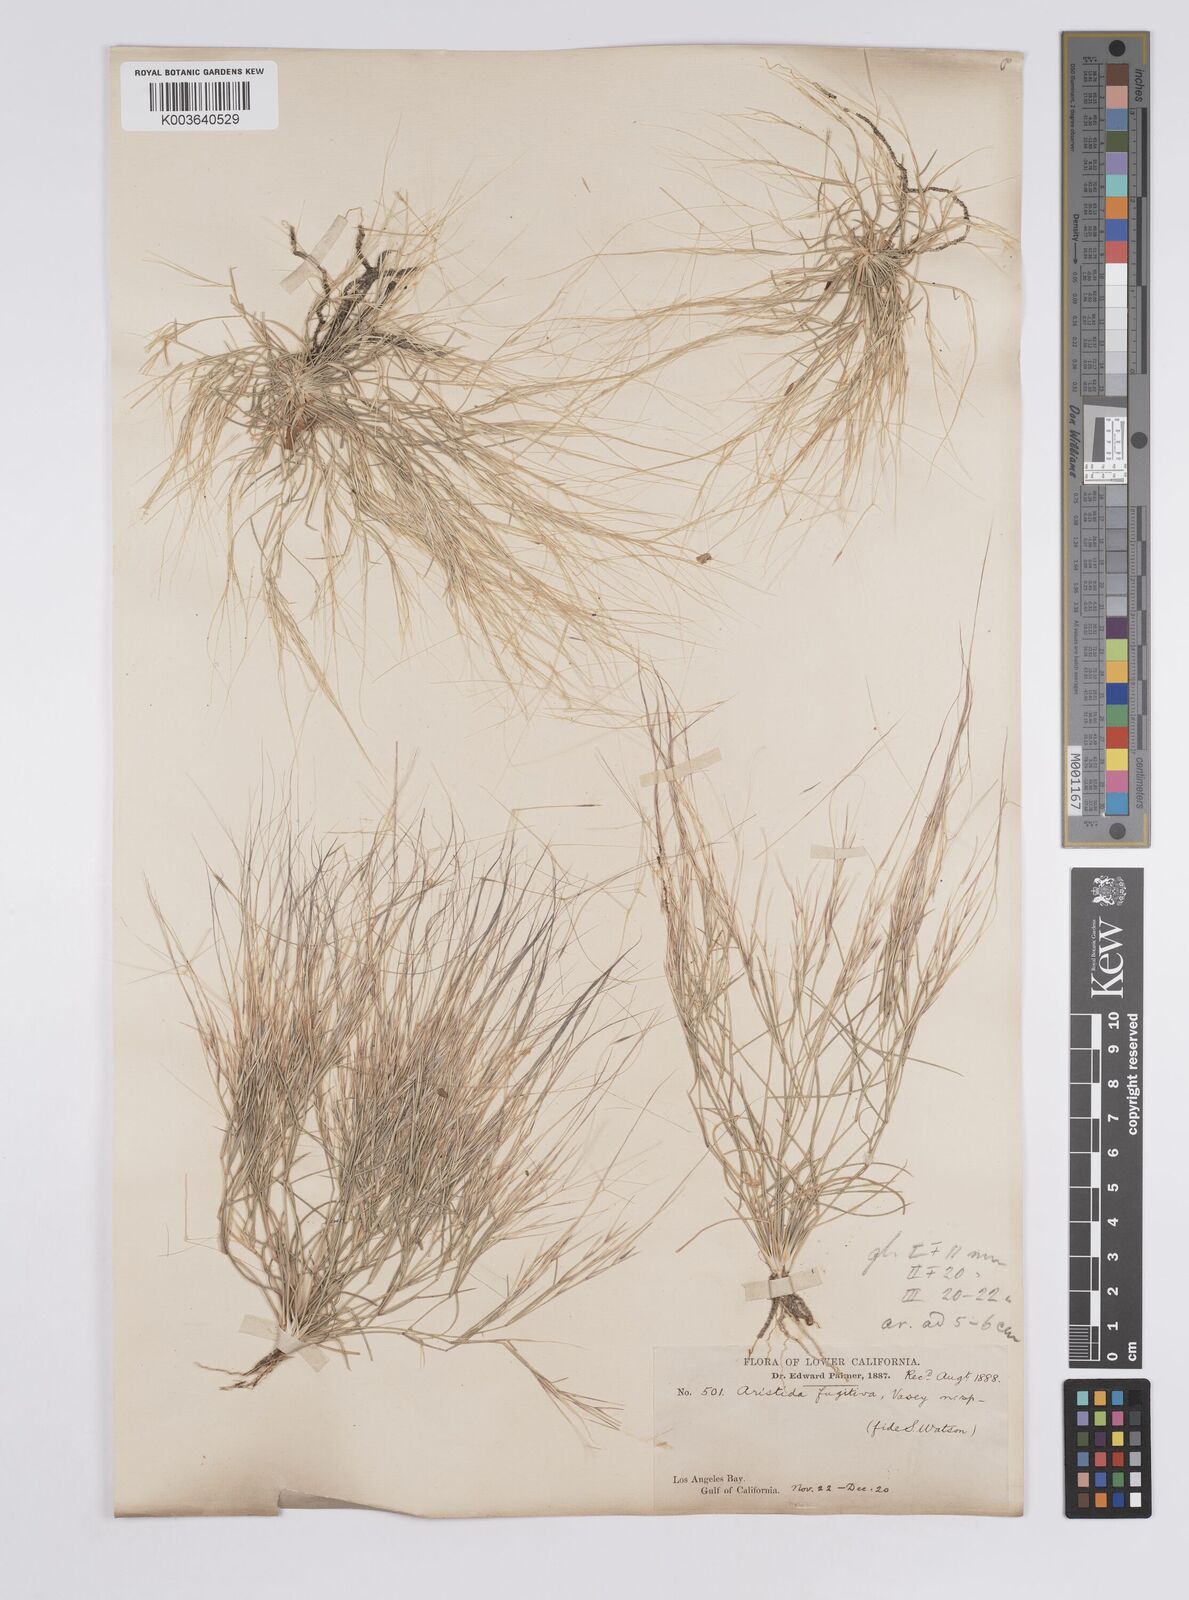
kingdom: Plantae
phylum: Tracheophyta
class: Liliopsida
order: Poales
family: Poaceae
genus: Aristida
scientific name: Aristida californica
